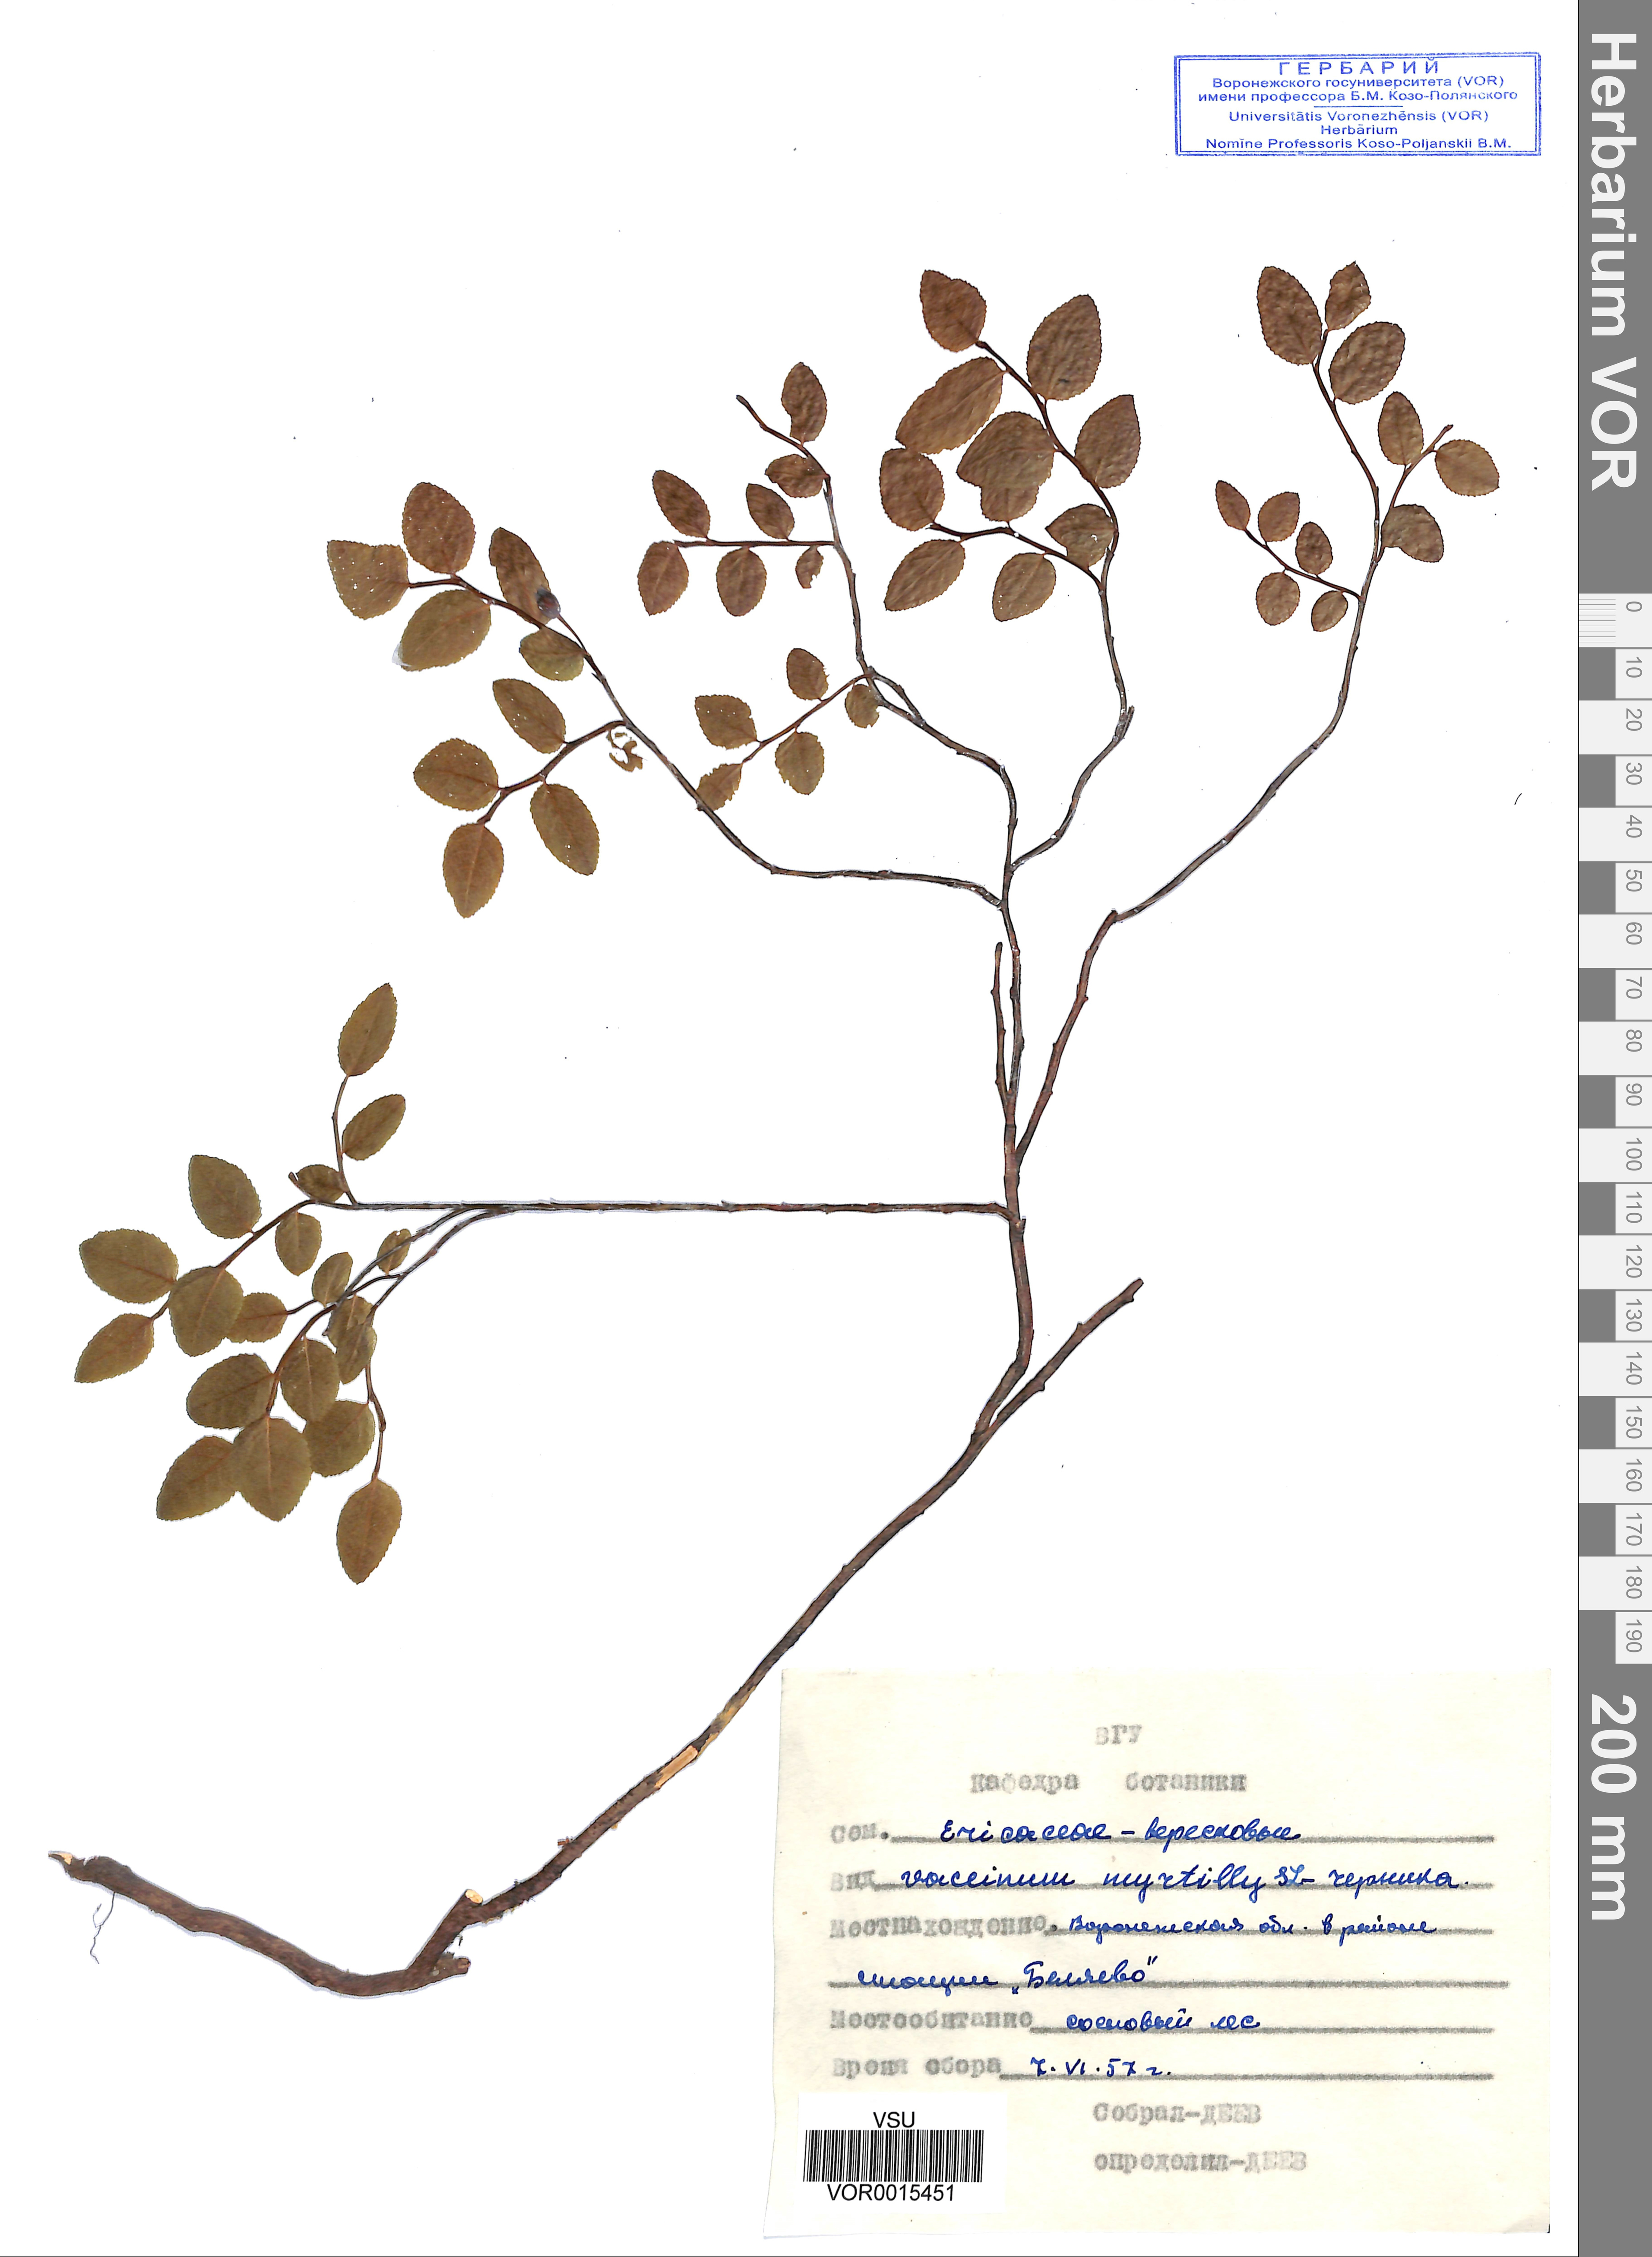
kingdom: Plantae
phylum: Tracheophyta
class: Magnoliopsida
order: Ericales
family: Ericaceae
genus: Vaccinium
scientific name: Vaccinium myrtillus
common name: Bilberry
